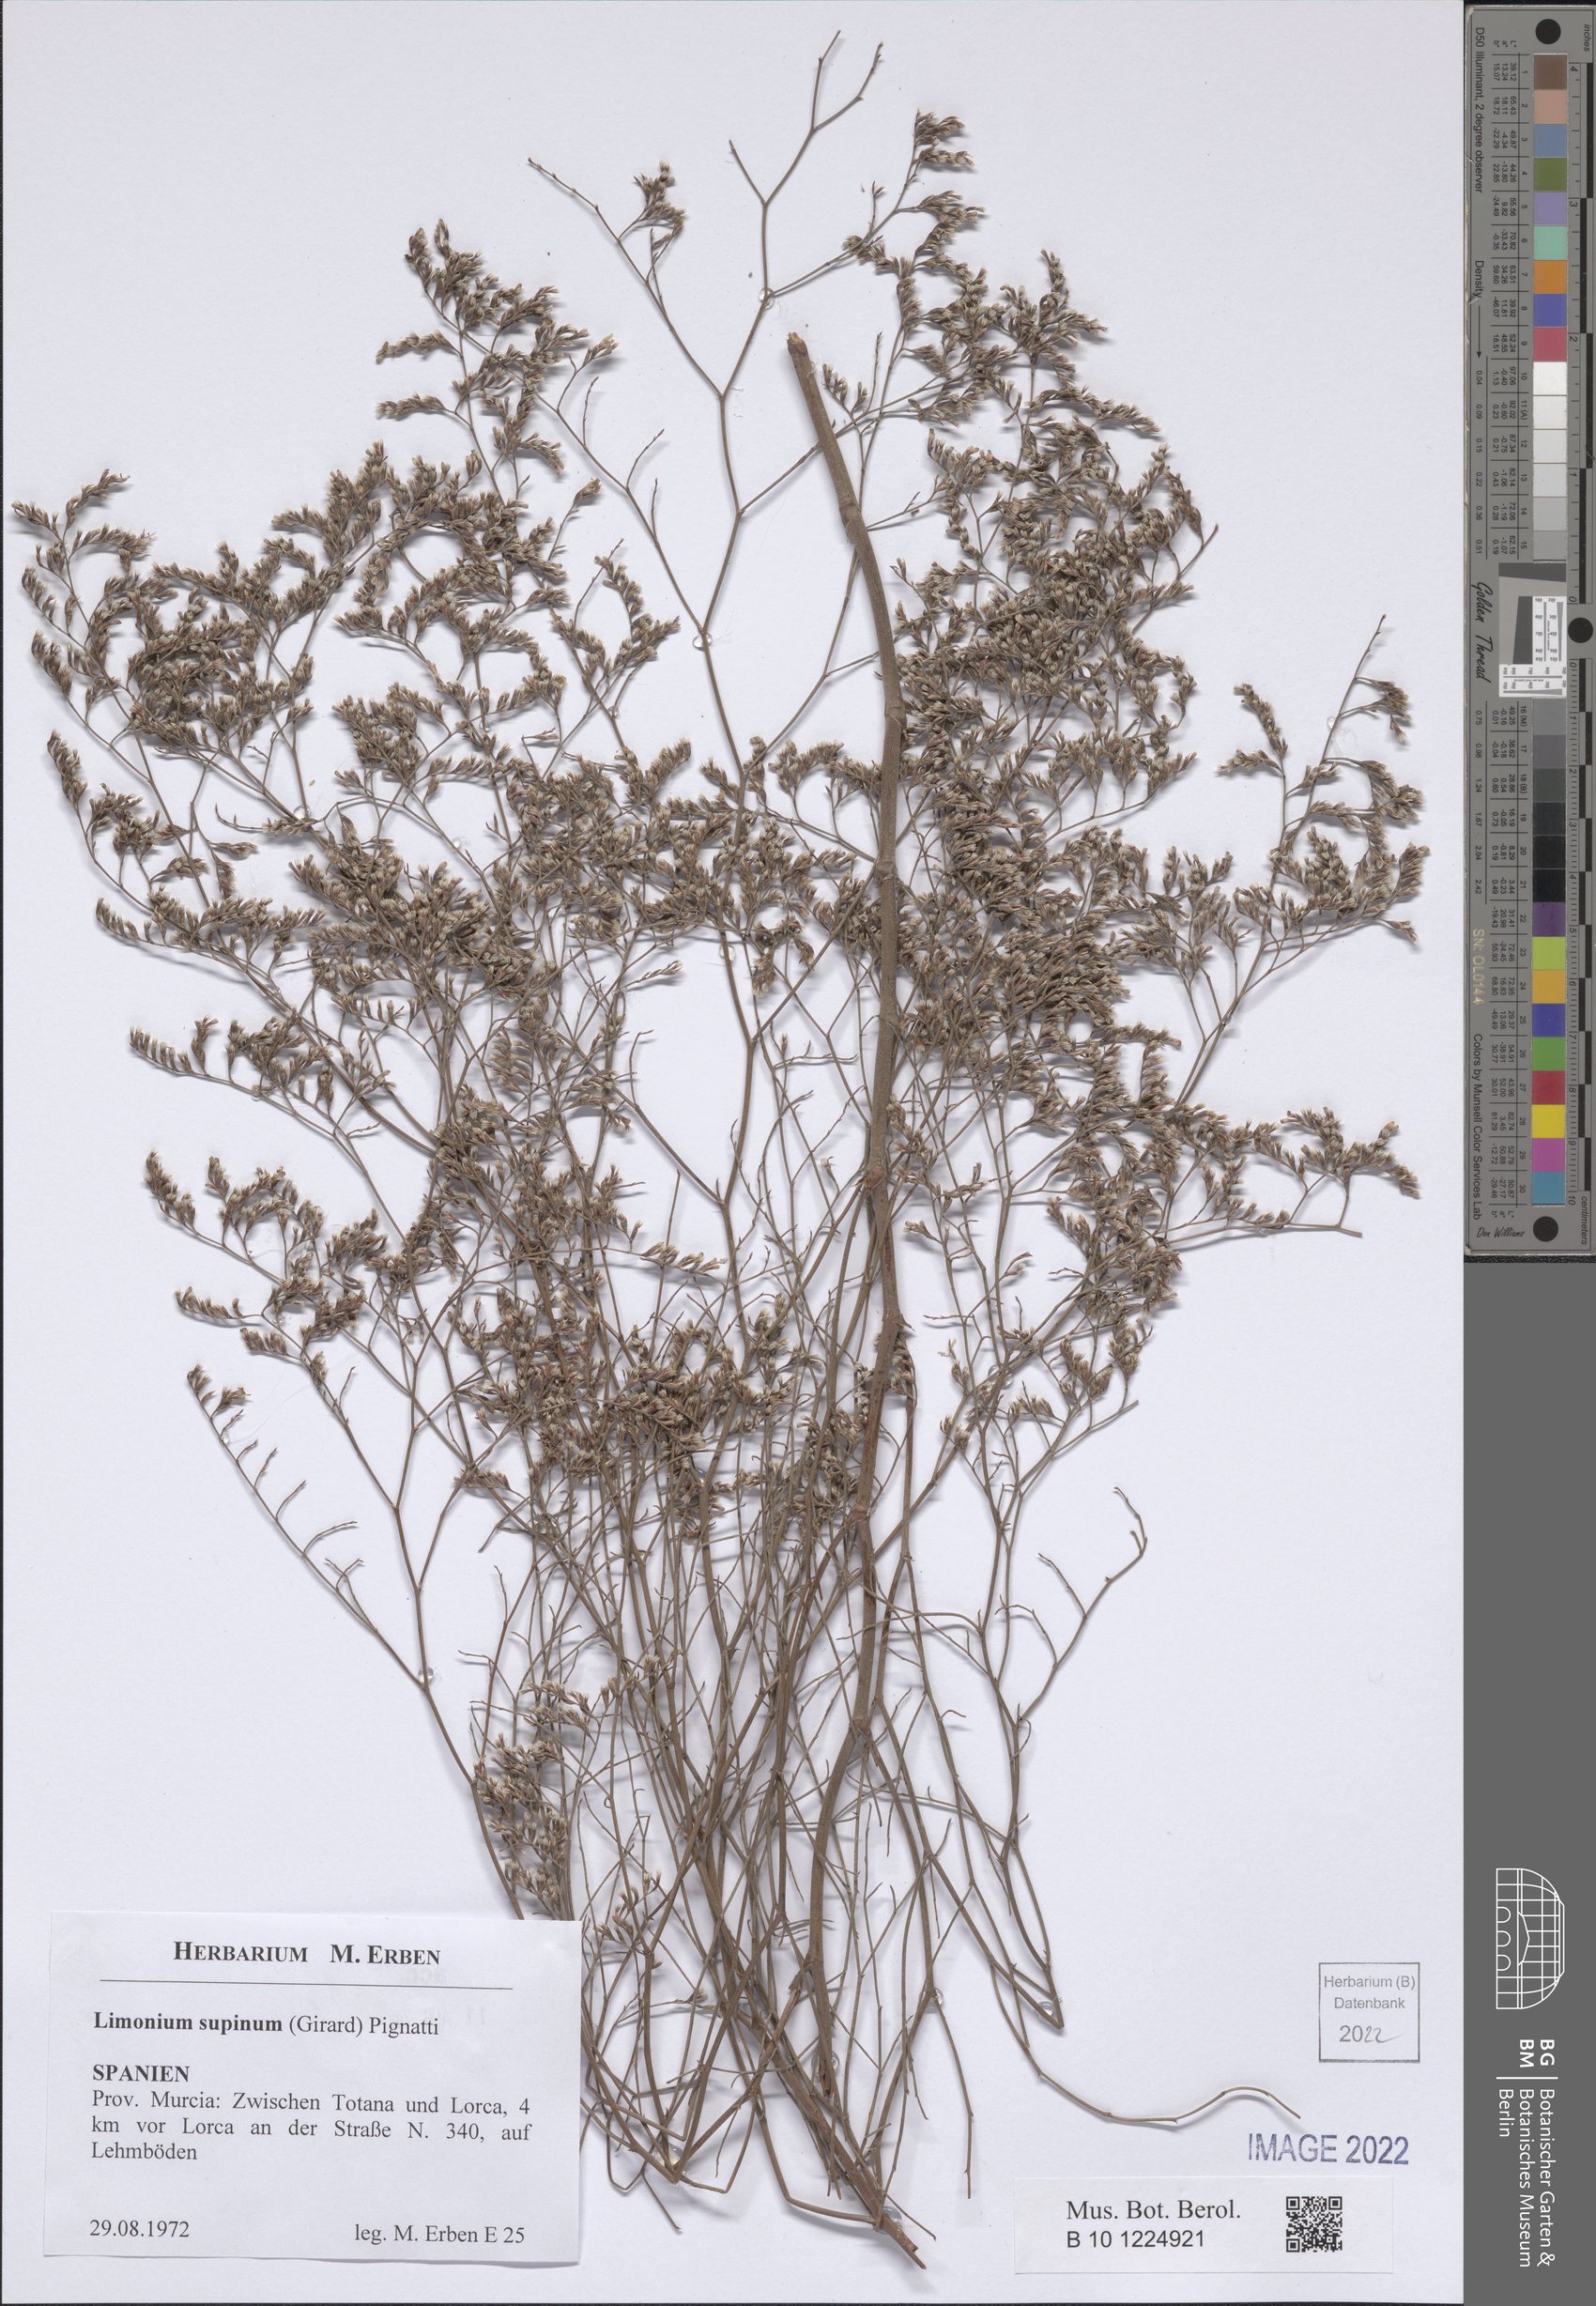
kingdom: Plantae
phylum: Tracheophyta
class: Magnoliopsida
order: Caryophyllales
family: Plumbaginaceae
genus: Limonium
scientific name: Limonium supinum
